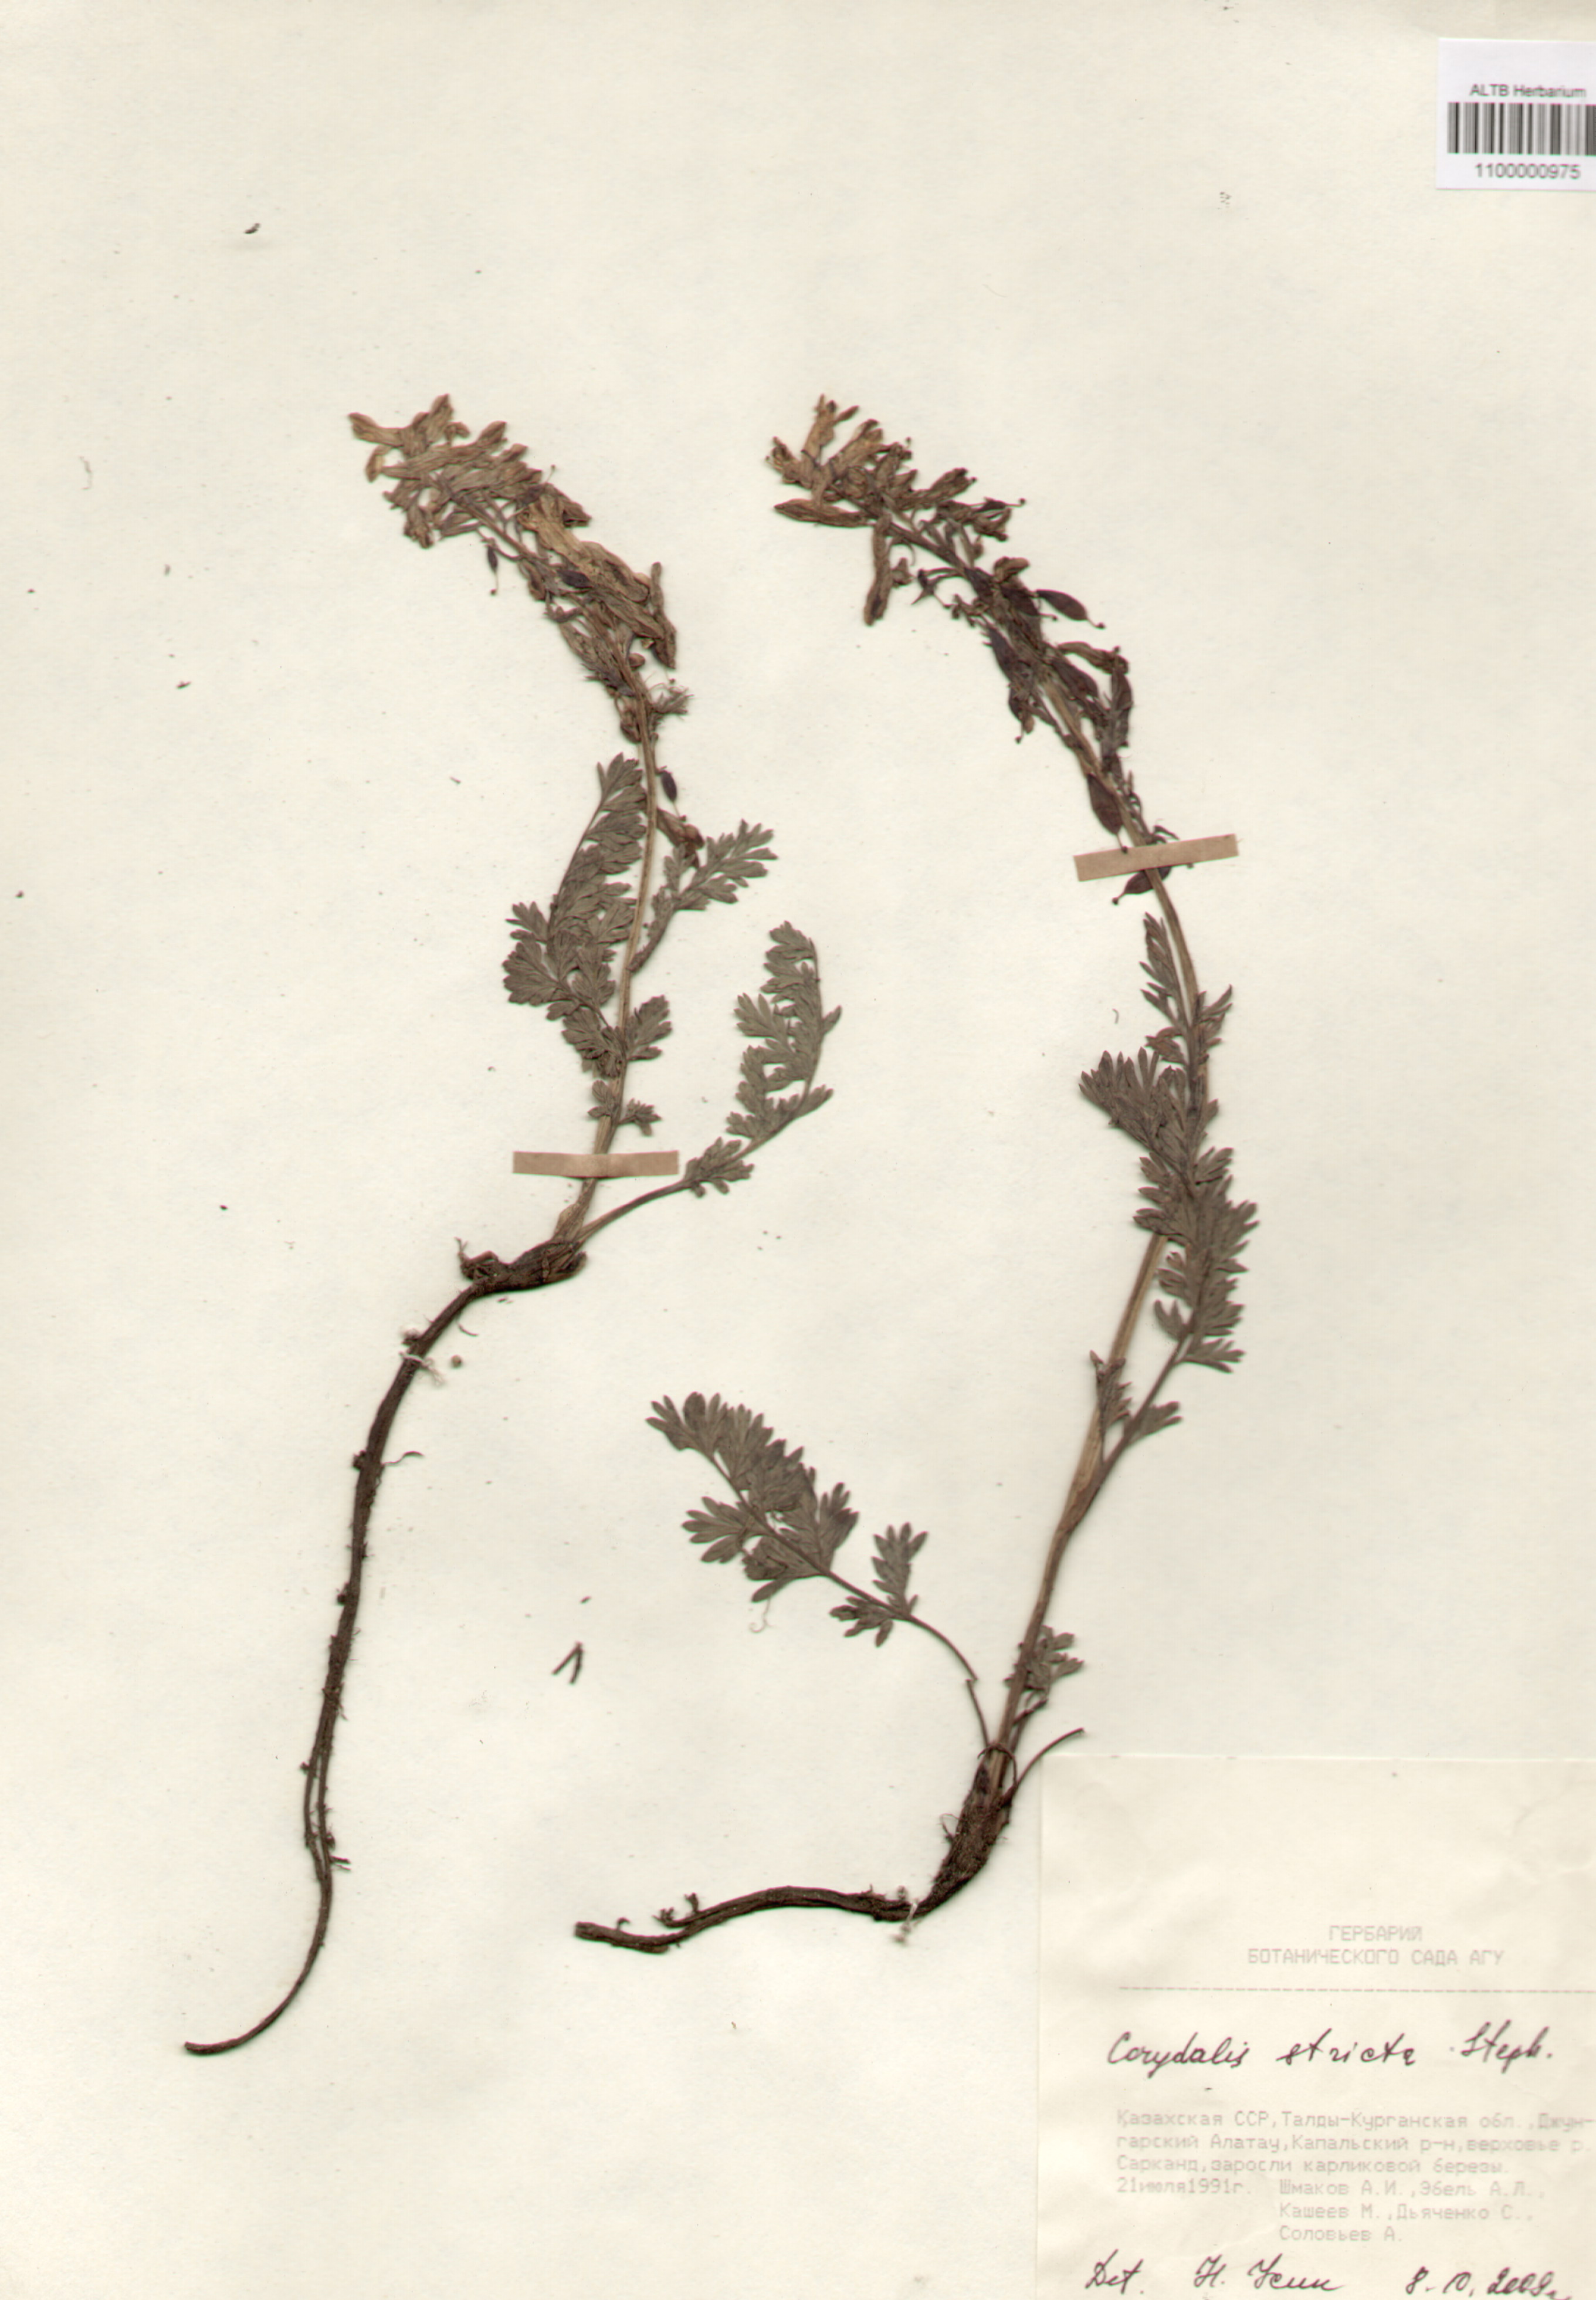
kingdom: Plantae
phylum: Tracheophyta
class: Magnoliopsida
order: Ranunculales
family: Papaveraceae
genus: Corydalis
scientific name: Corydalis stricta
